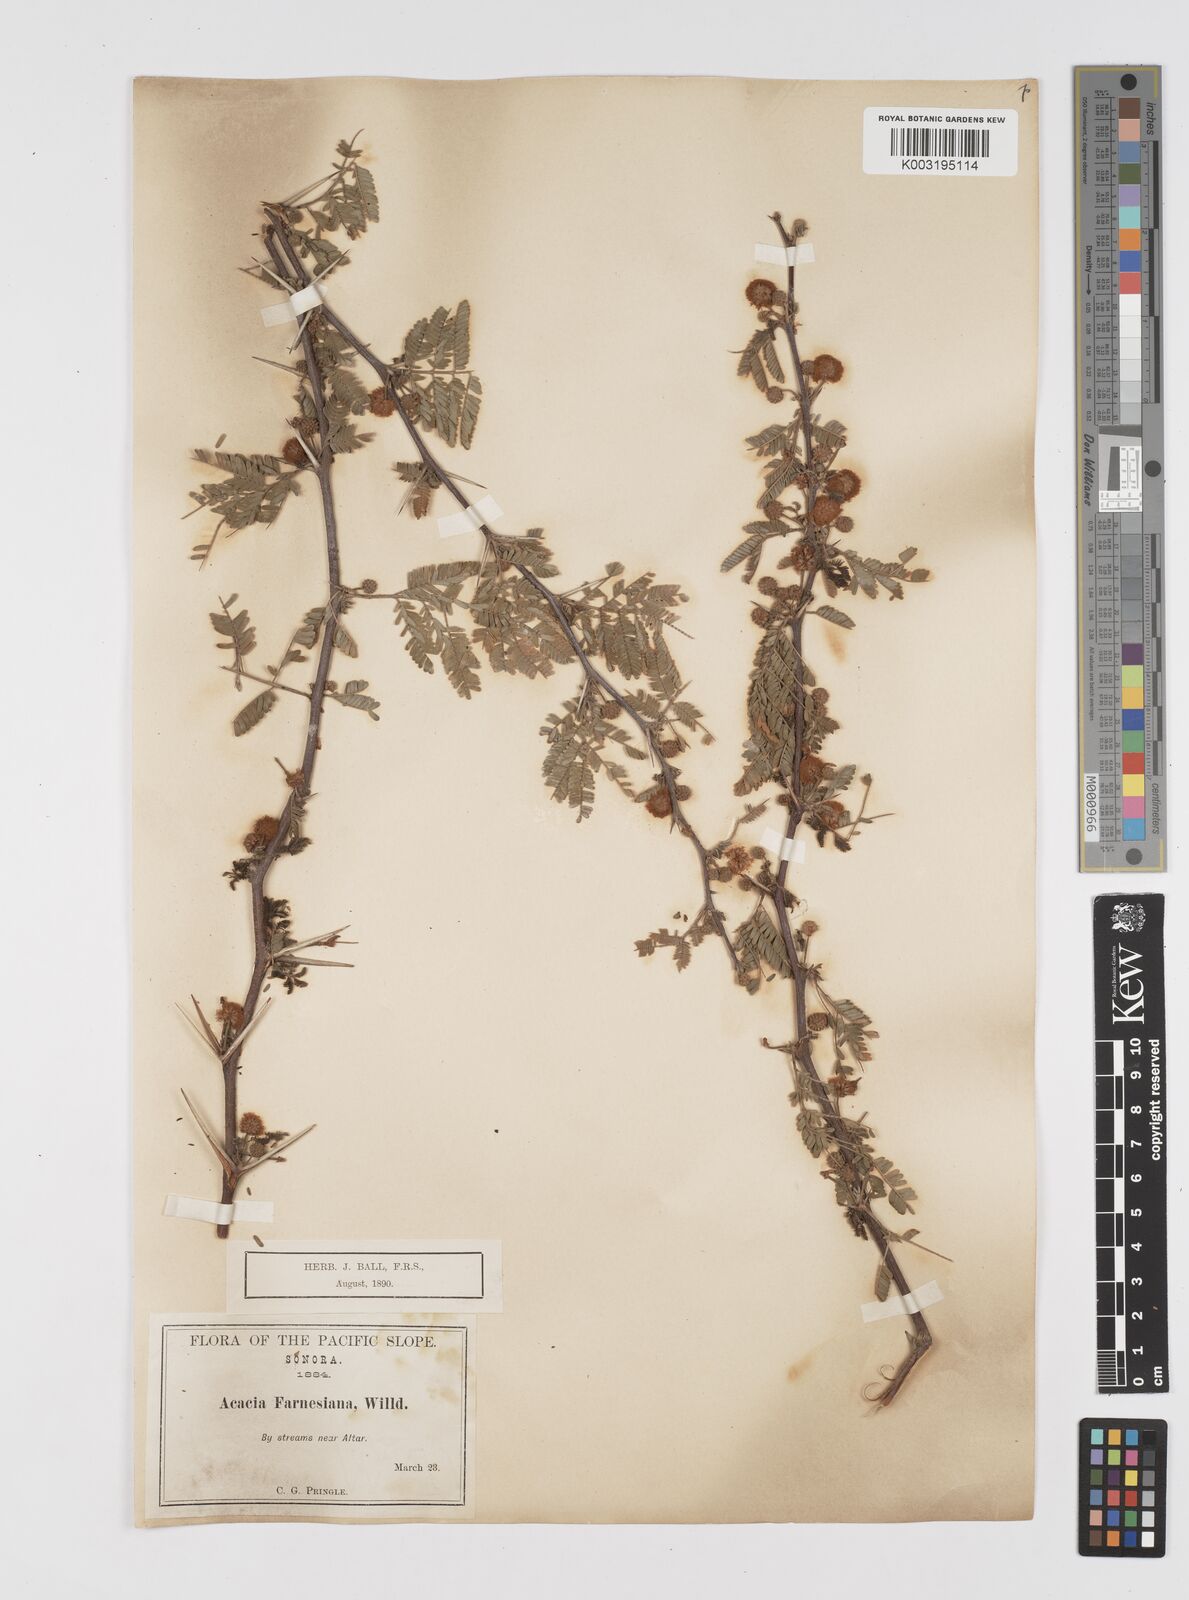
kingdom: Plantae
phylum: Tracheophyta
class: Magnoliopsida
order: Fabales
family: Fabaceae
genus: Vachellia
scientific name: Vachellia farnesiana
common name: Sweet acacia
